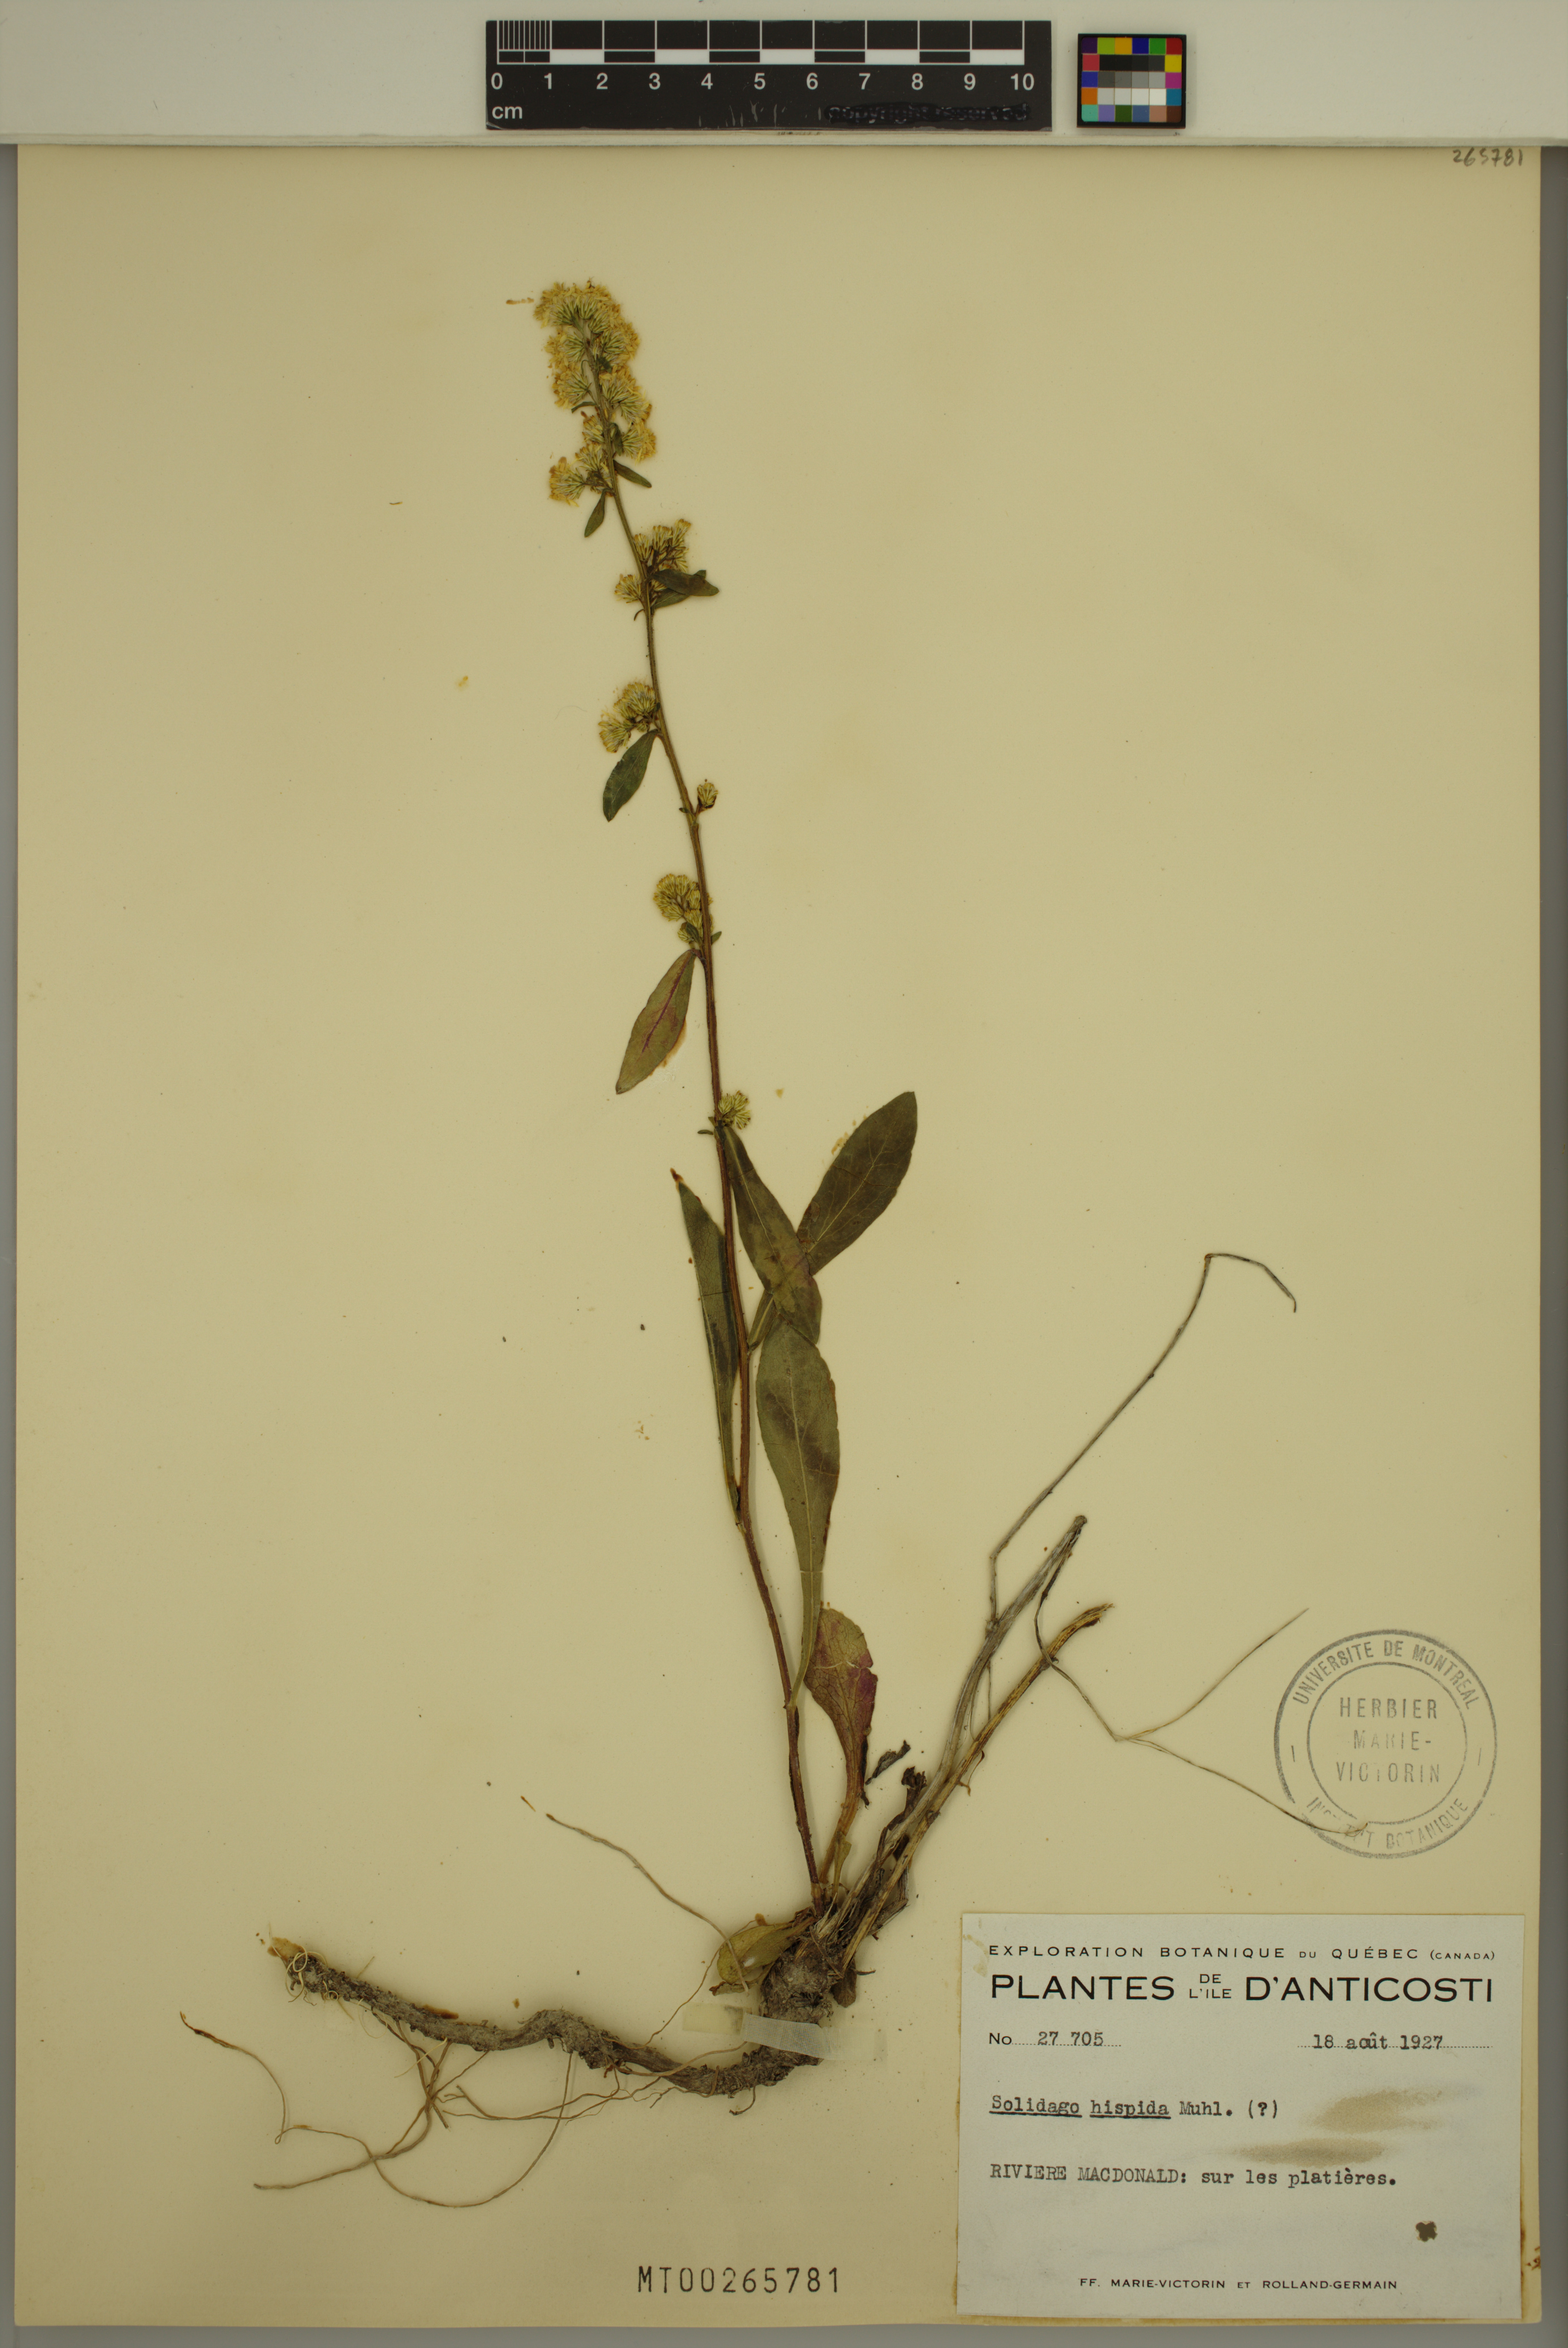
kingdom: Plantae
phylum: Tracheophyta
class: Magnoliopsida
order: Asterales
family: Asteraceae
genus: Solidago
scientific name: Solidago hispida
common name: Hairy goldenrod
